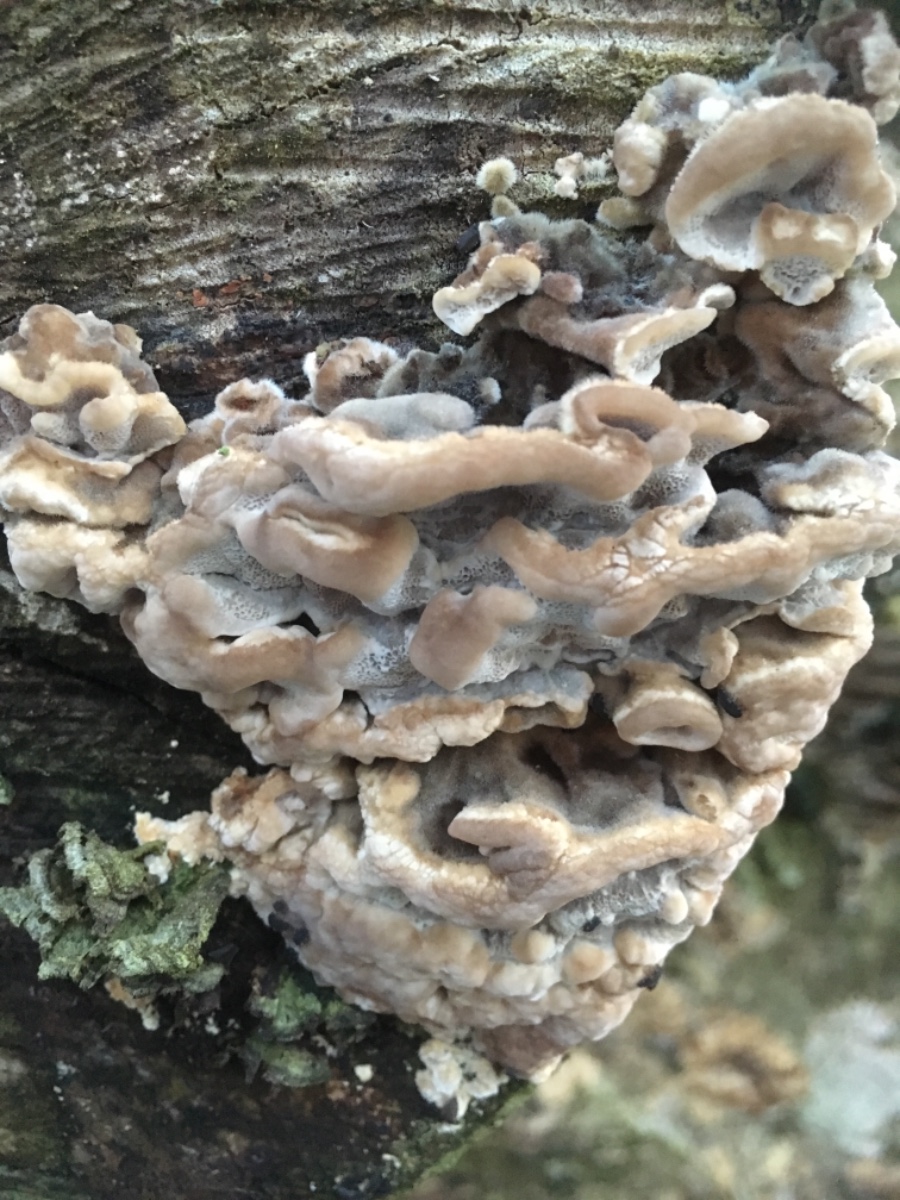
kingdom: Fungi
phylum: Basidiomycota
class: Agaricomycetes
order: Polyporales
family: Phanerochaetaceae
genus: Bjerkandera
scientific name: Bjerkandera adusta
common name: sveden sodporesvamp
